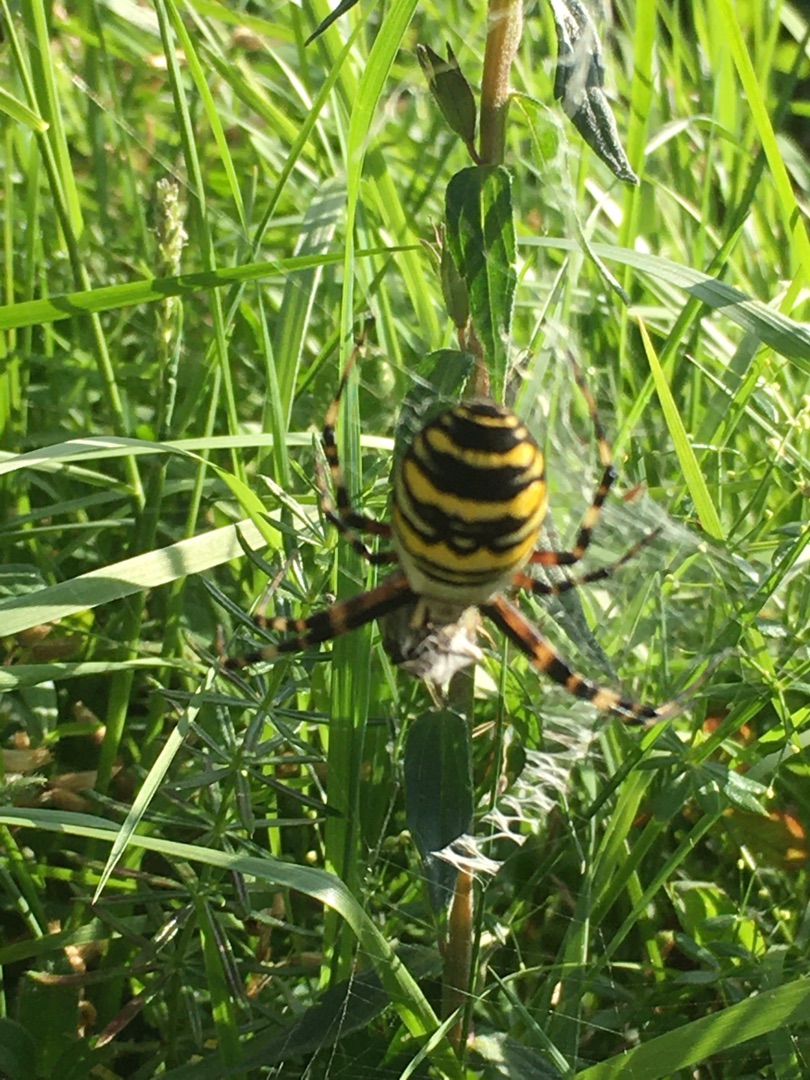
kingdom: Animalia
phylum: Arthropoda
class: Arachnida
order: Araneae
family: Araneidae
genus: Argiope
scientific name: Argiope bruennichi
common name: Hvepseedderkop
